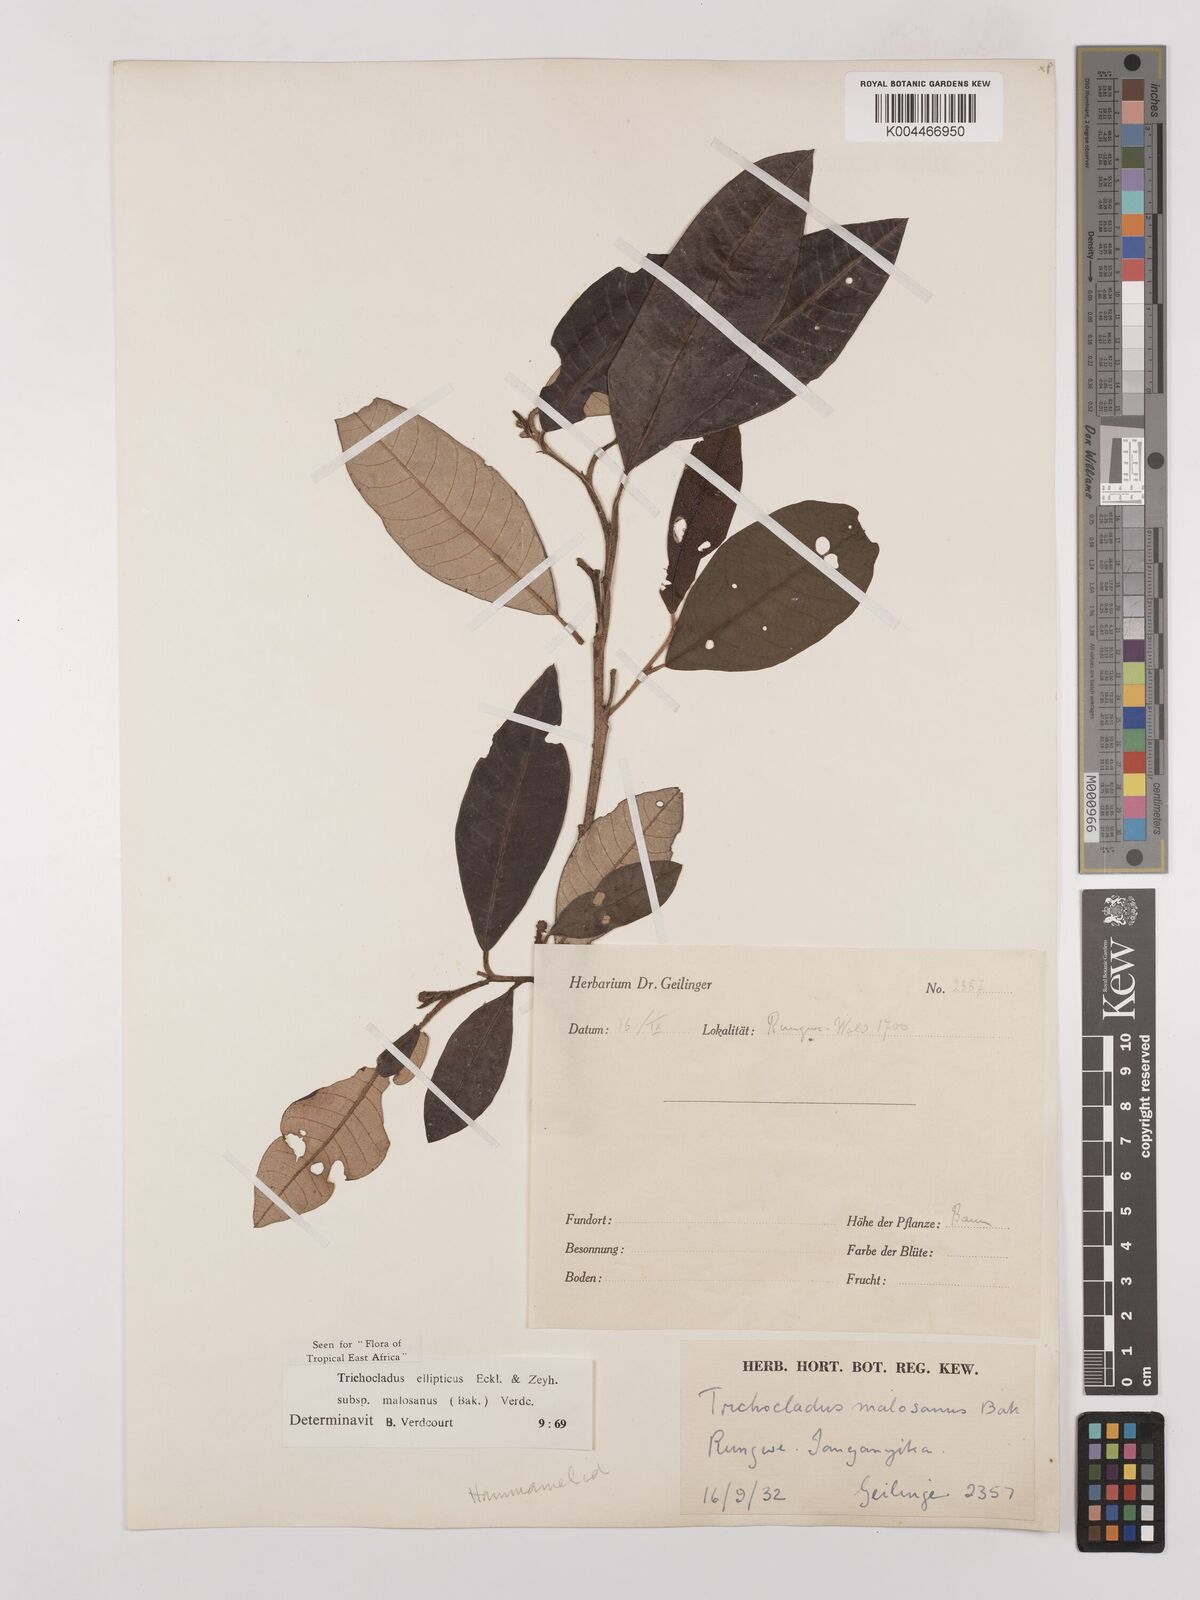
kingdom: Plantae
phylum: Tracheophyta
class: Magnoliopsida
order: Saxifragales
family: Hamamelidaceae
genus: Trichocladus
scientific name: Trichocladus ellipticus
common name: White witch-hazel
